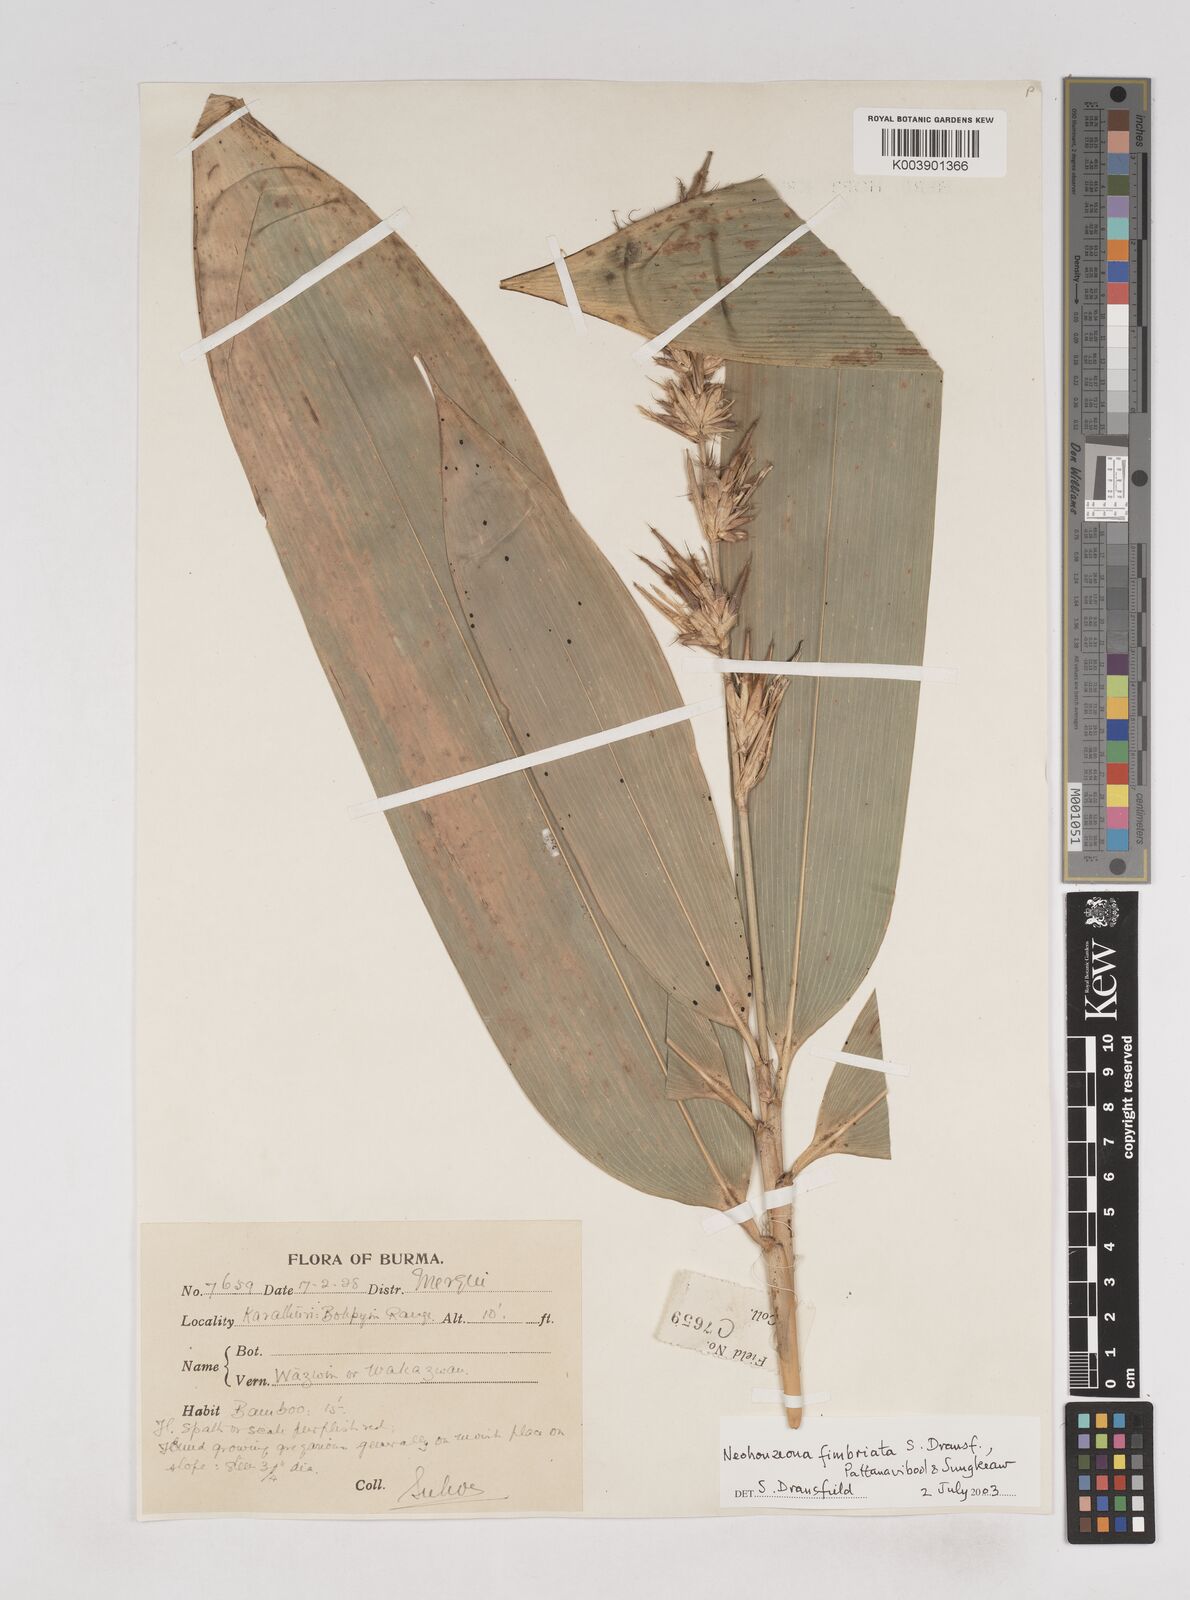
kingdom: Plantae
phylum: Tracheophyta
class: Liliopsida
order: Poales
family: Poaceae
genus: Schizostachyum
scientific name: Schizostachyum
